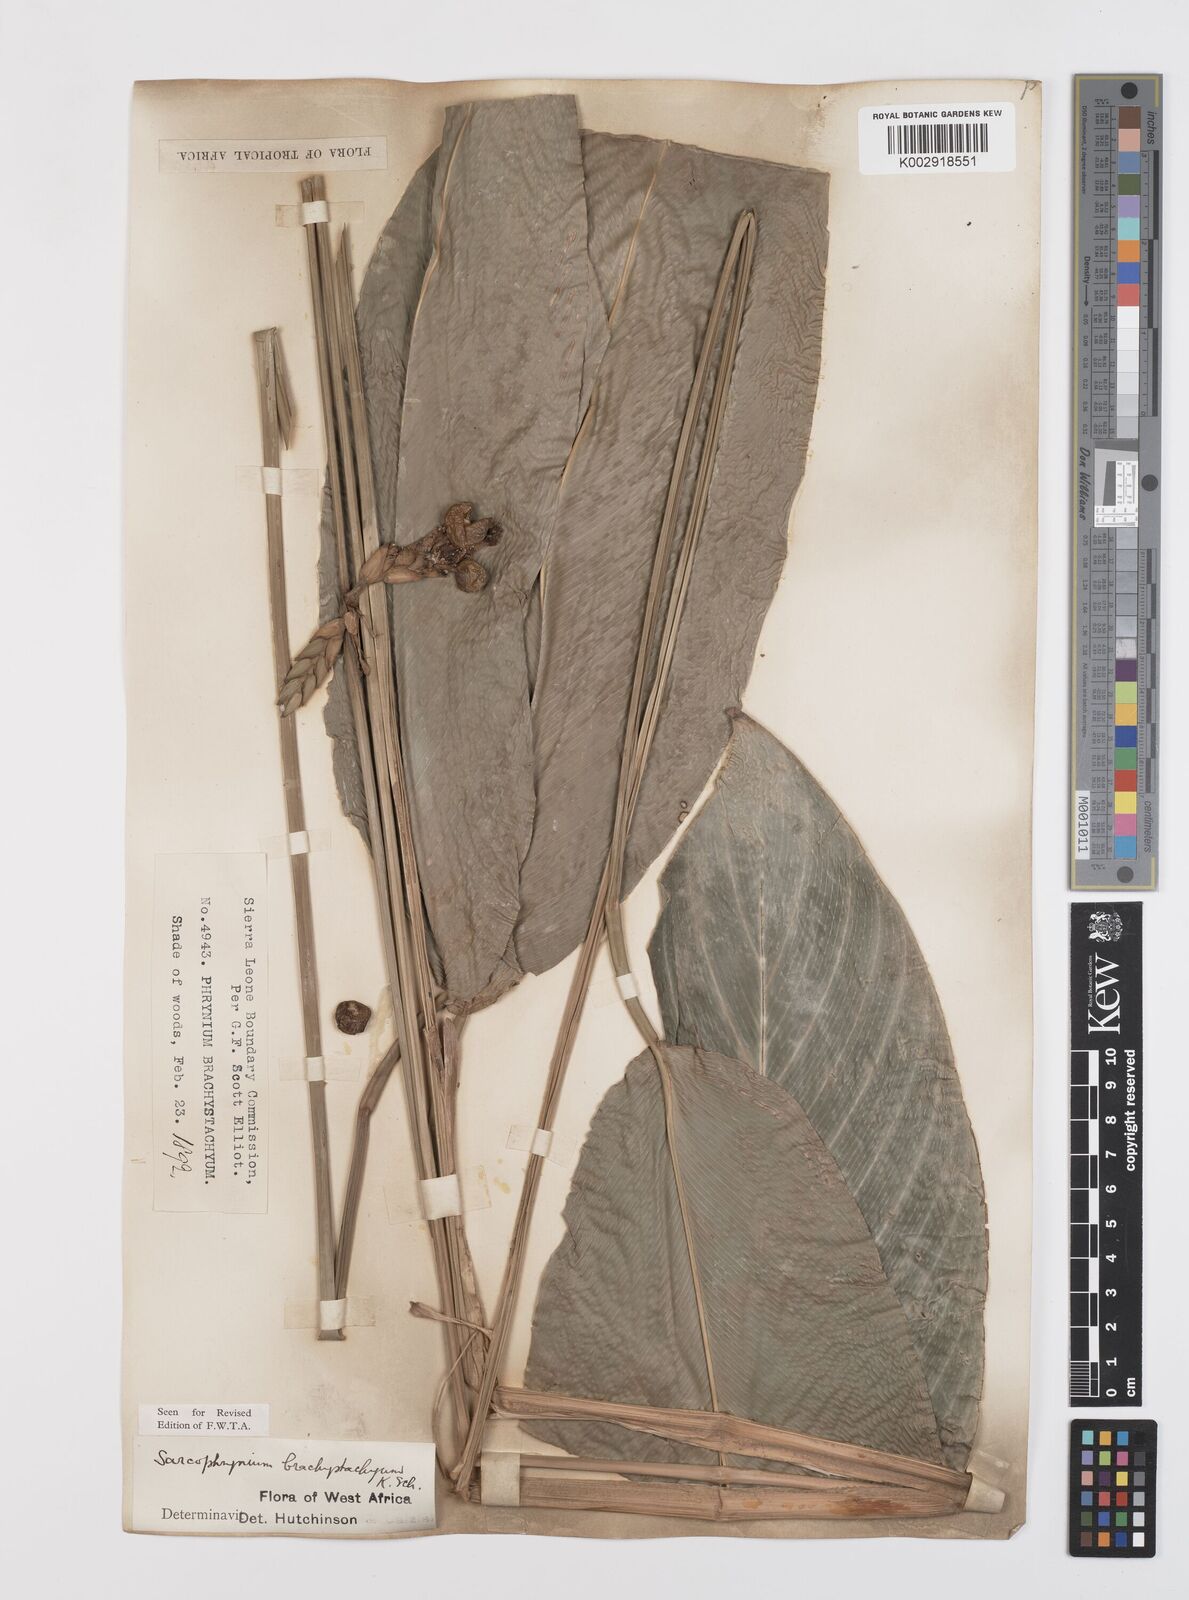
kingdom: Plantae
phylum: Tracheophyta
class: Liliopsida
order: Zingiberales
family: Marantaceae
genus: Sarcophrynium
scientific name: Sarcophrynium brachystachyum
